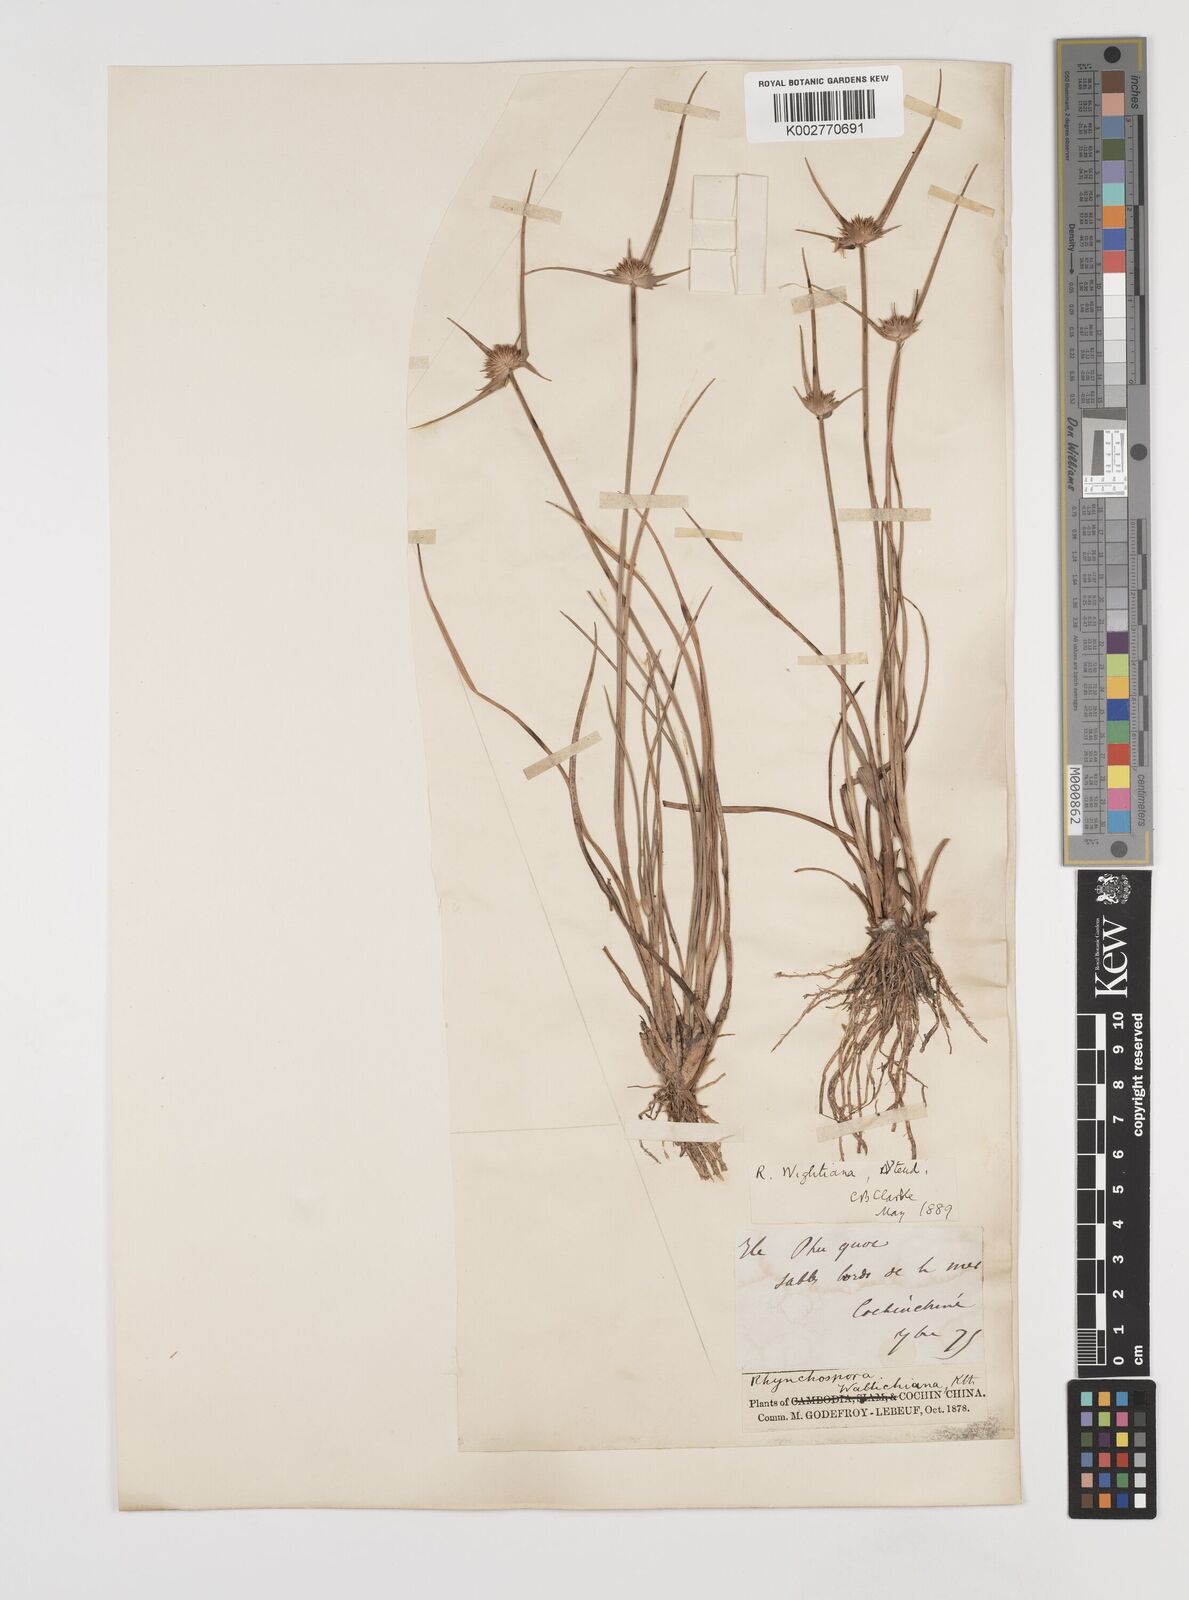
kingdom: Plantae
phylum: Tracheophyta
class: Liliopsida
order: Poales
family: Cyperaceae
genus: Rhynchospora
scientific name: Rhynchospora submarginata
